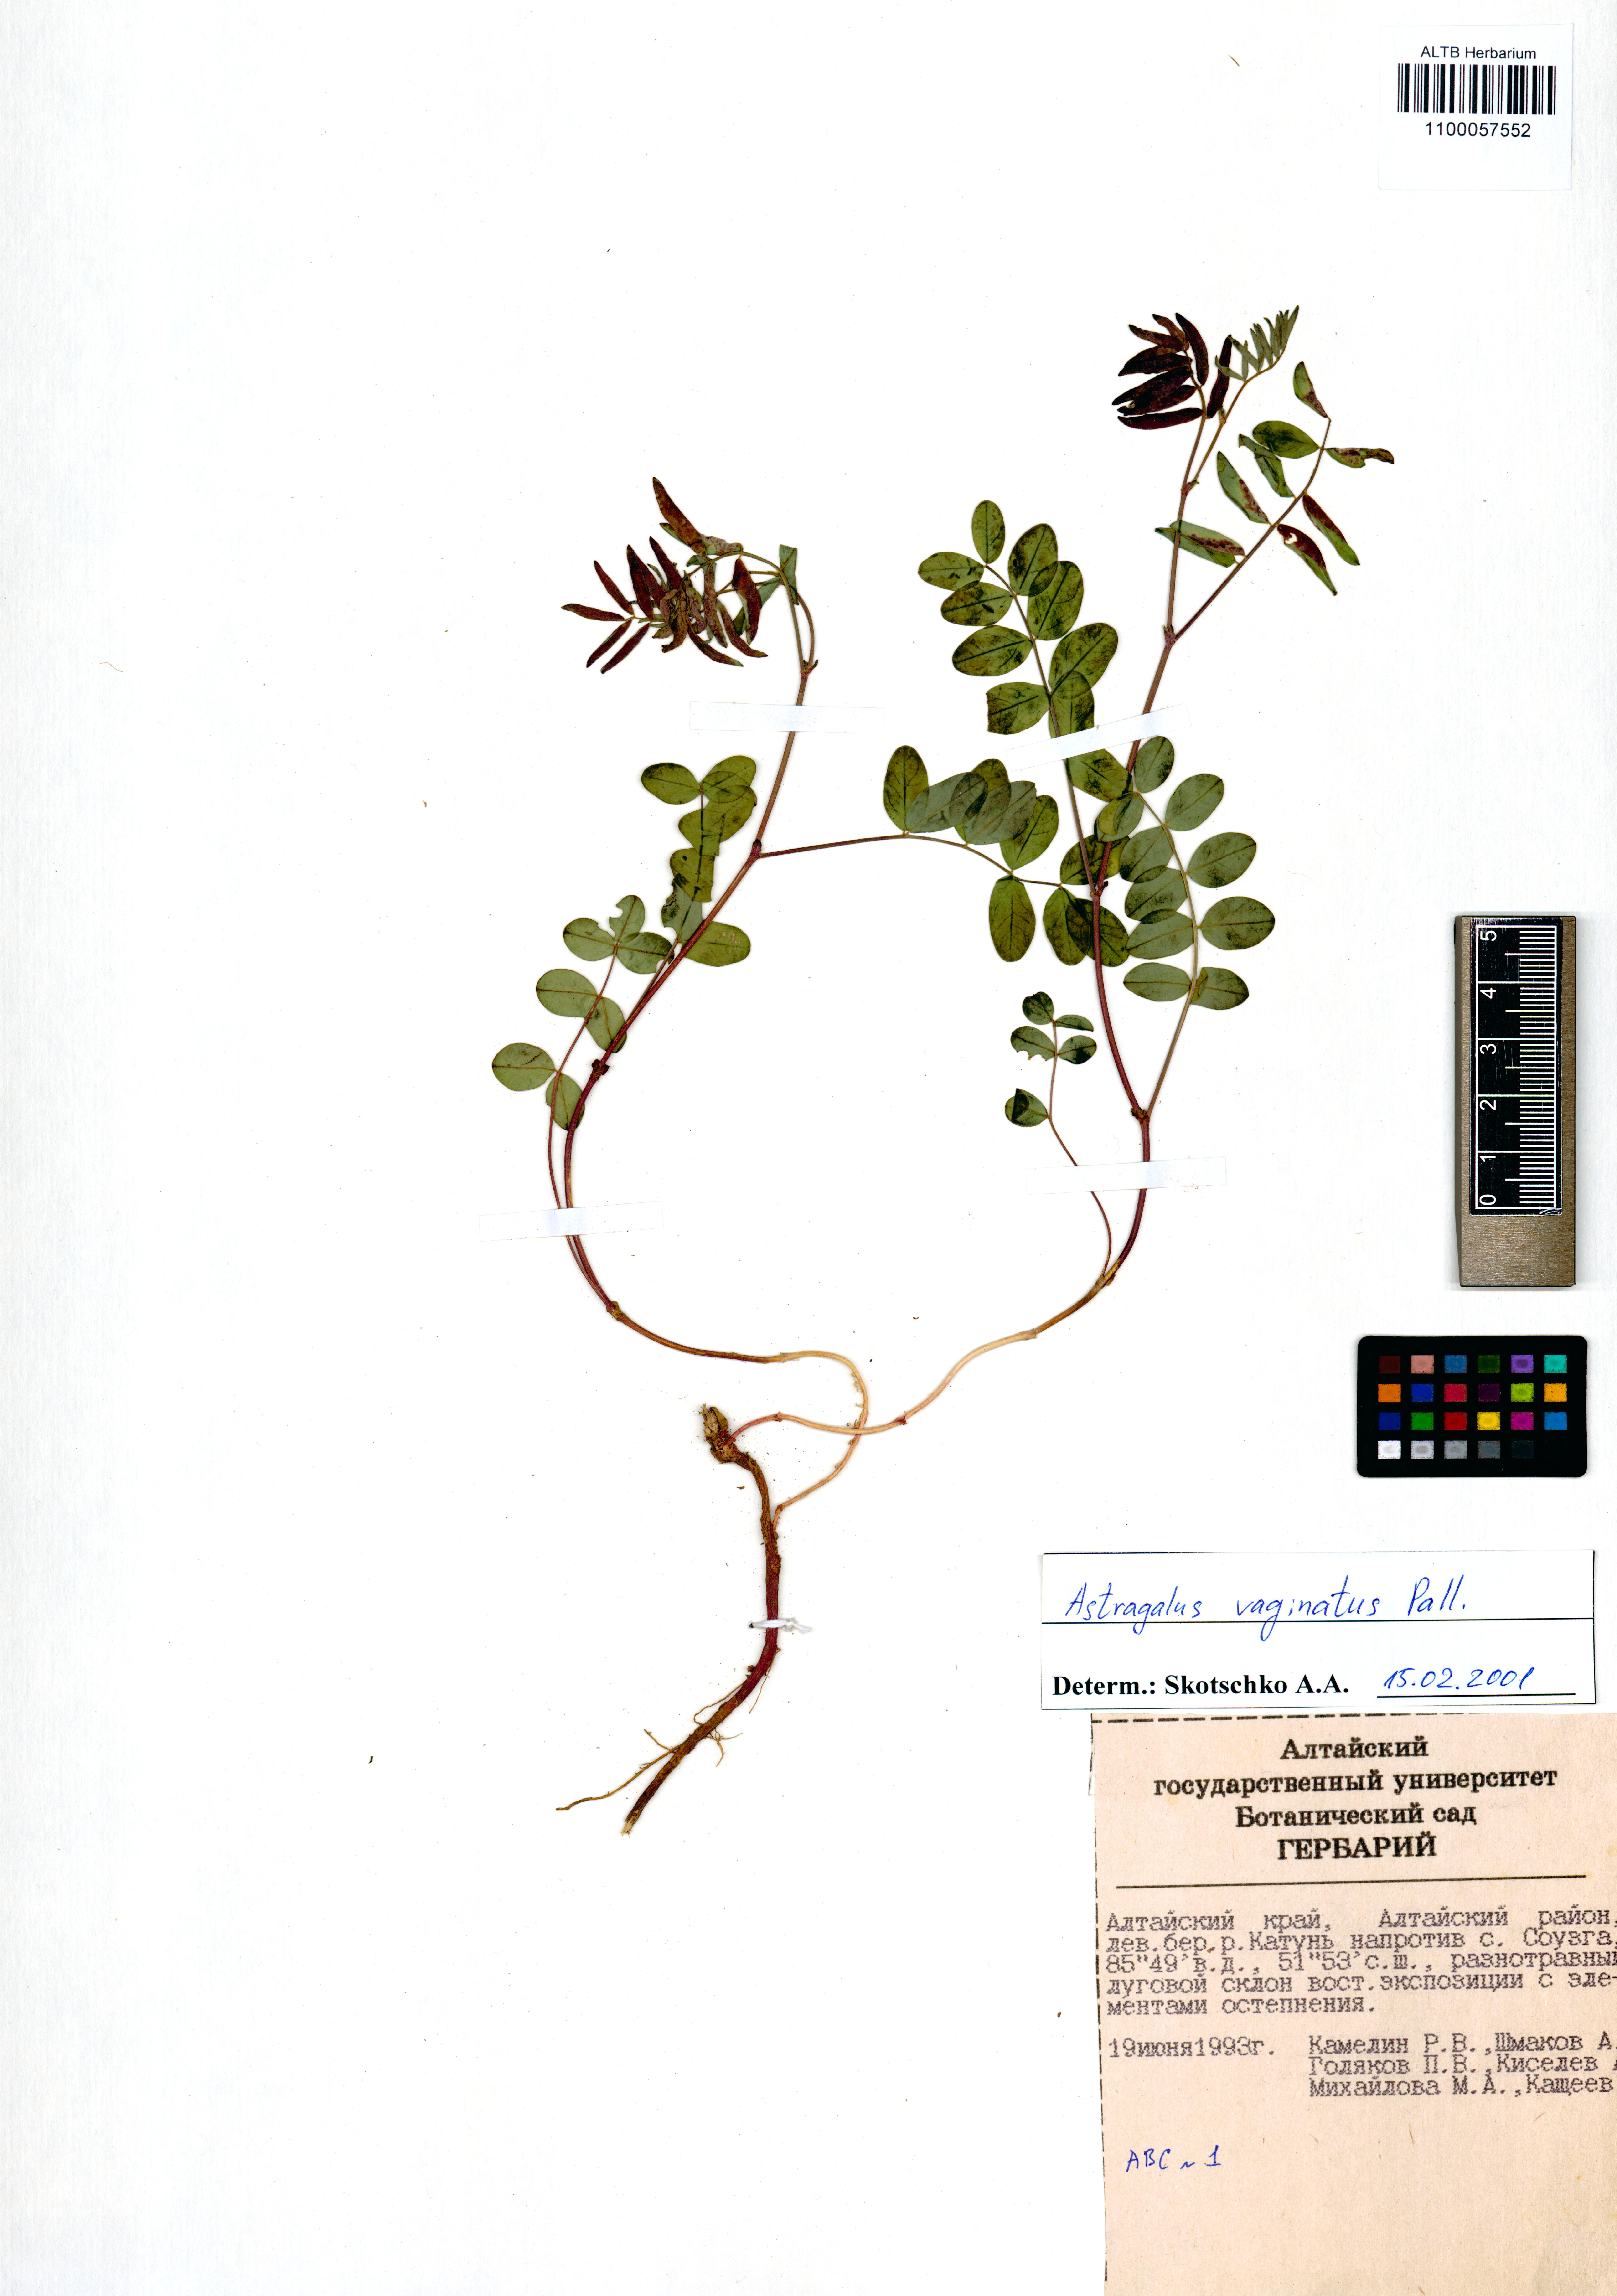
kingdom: Plantae
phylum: Tracheophyta
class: Magnoliopsida
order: Fabales
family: Fabaceae
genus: Astragalus
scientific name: Astragalus vaginatus
